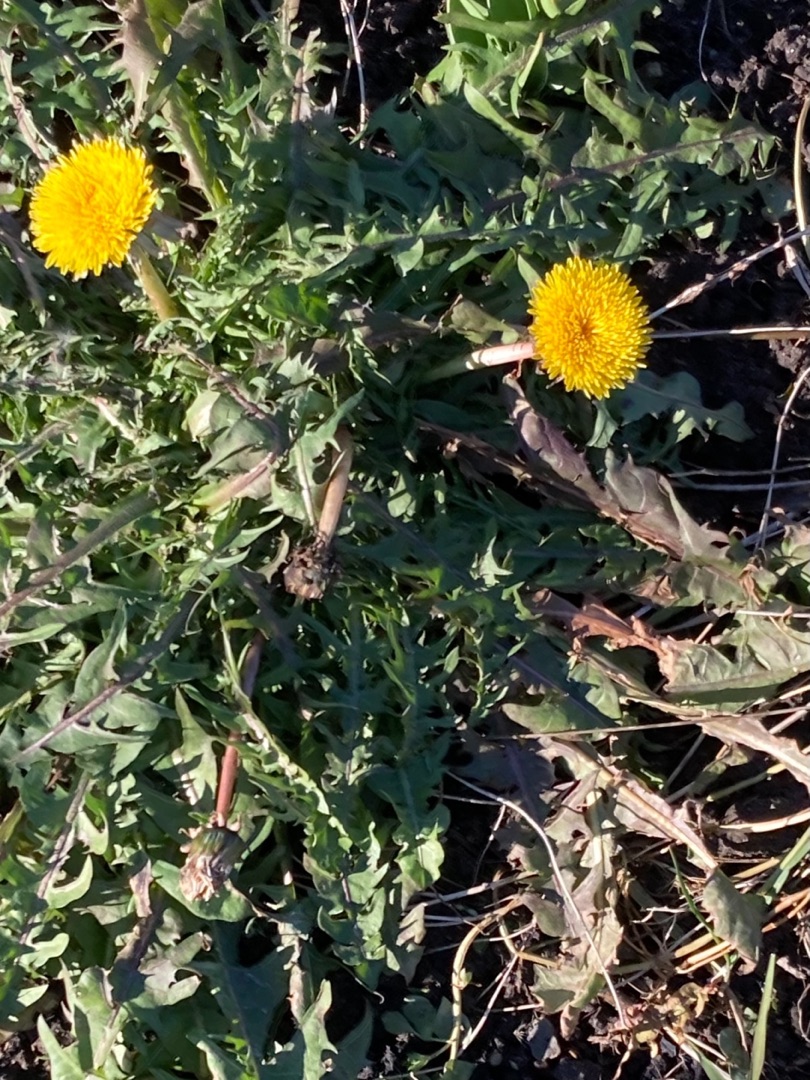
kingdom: Plantae
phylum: Tracheophyta
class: Magnoliopsida
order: Asterales
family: Asteraceae
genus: Taraxacum
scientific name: Taraxacum
